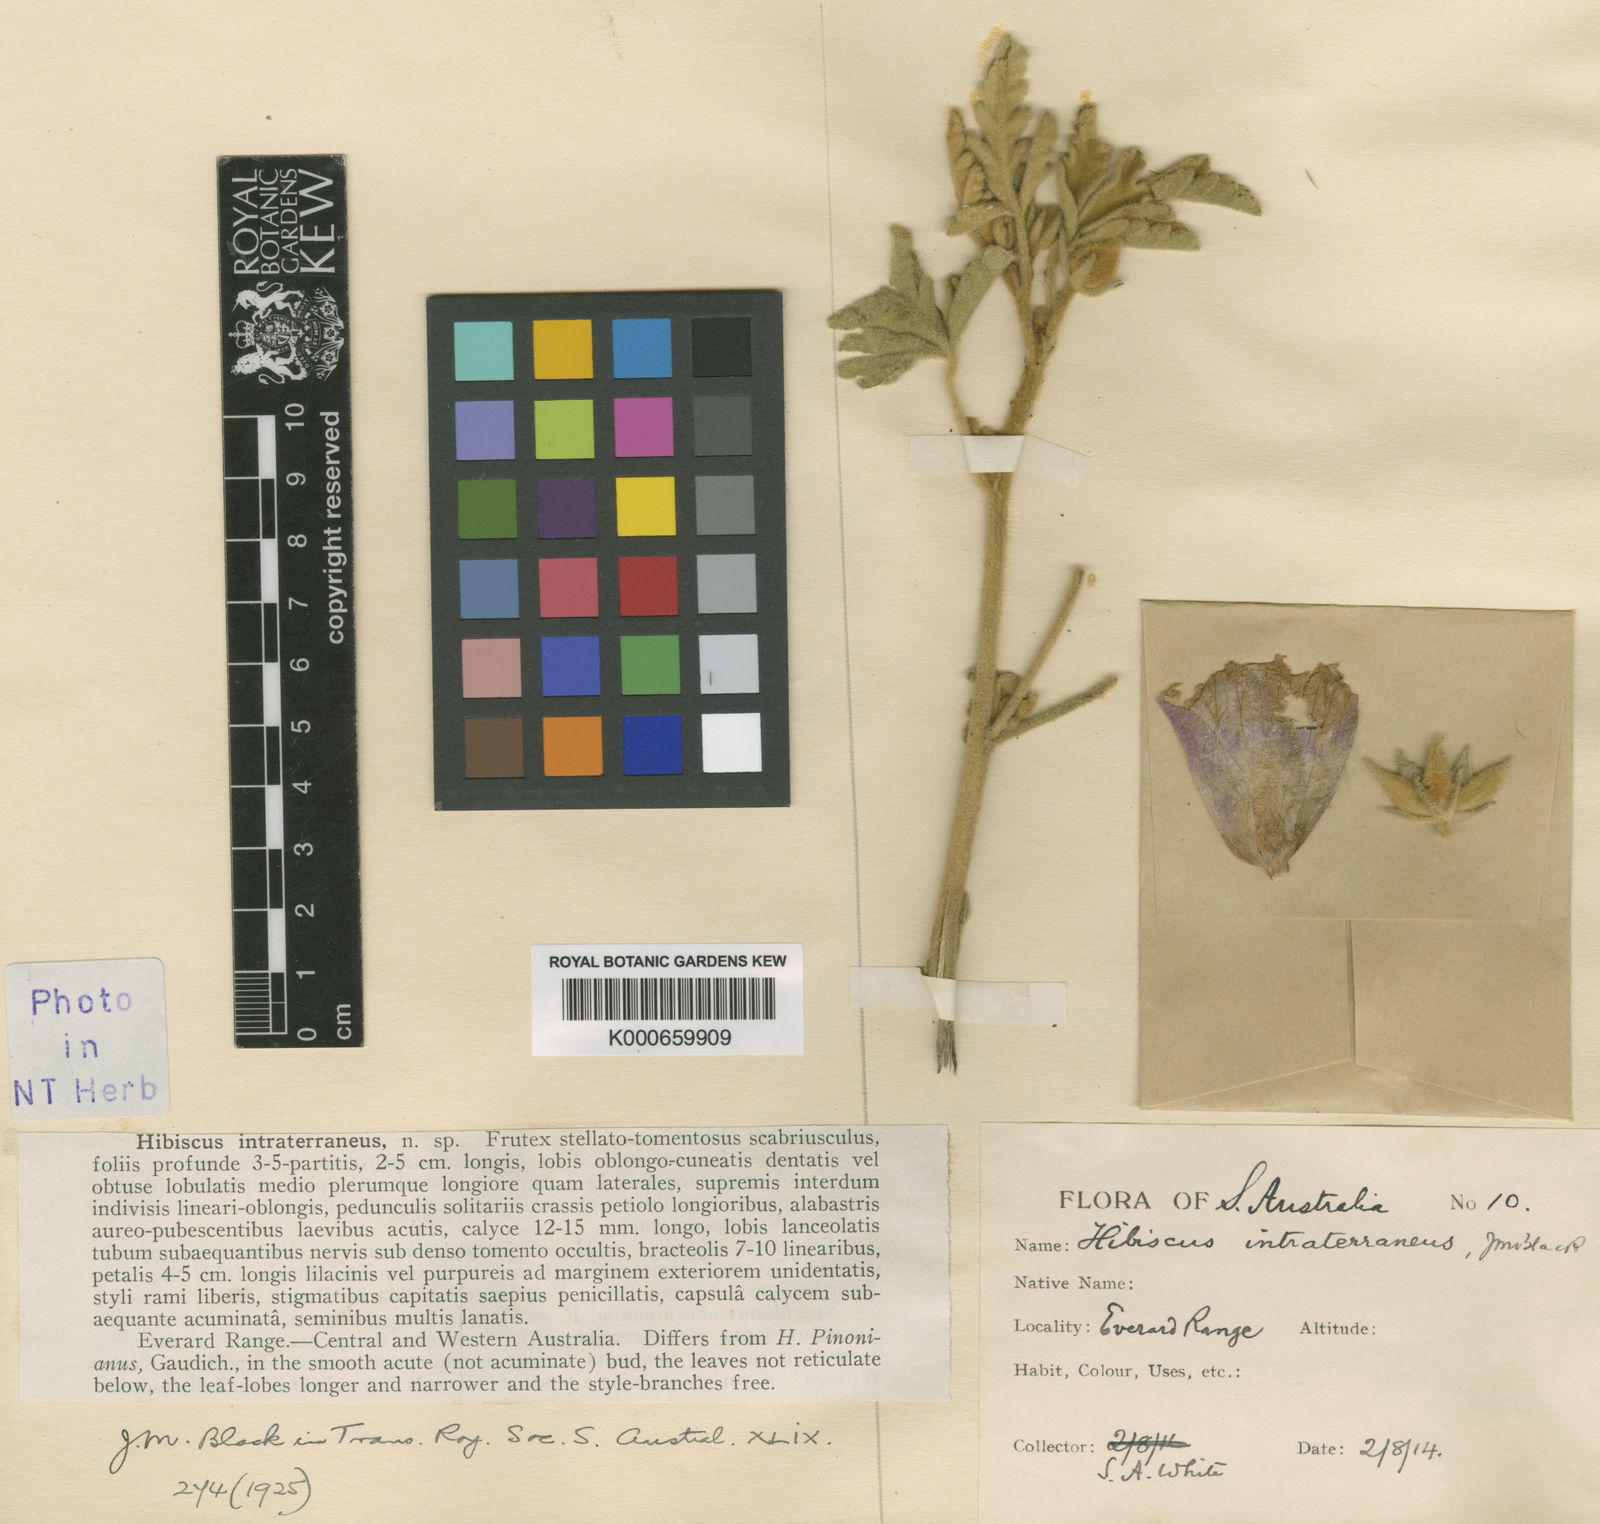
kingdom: Plantae
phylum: Tracheophyta
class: Magnoliopsida
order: Malvales
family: Malvaceae
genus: Hibiscus
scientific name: Hibiscus intraterraneus
